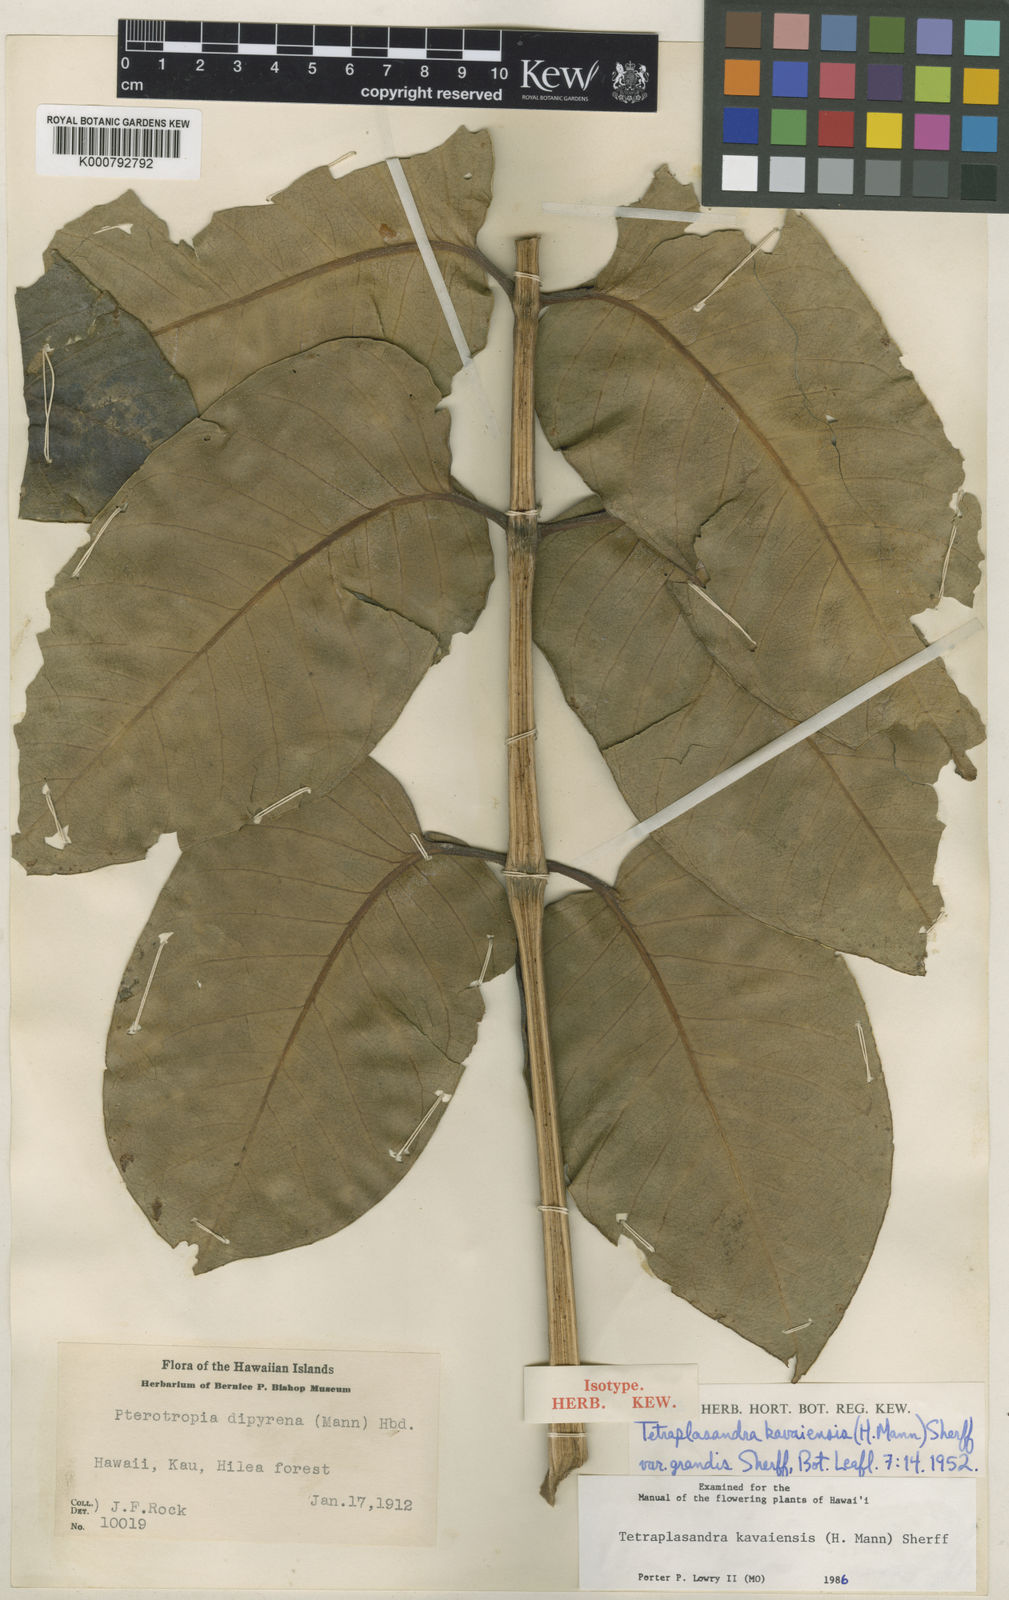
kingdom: Plantae
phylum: Tracheophyta
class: Magnoliopsida
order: Apiales
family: Araliaceae
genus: Polyscias
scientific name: Polyscias kavaiensis
